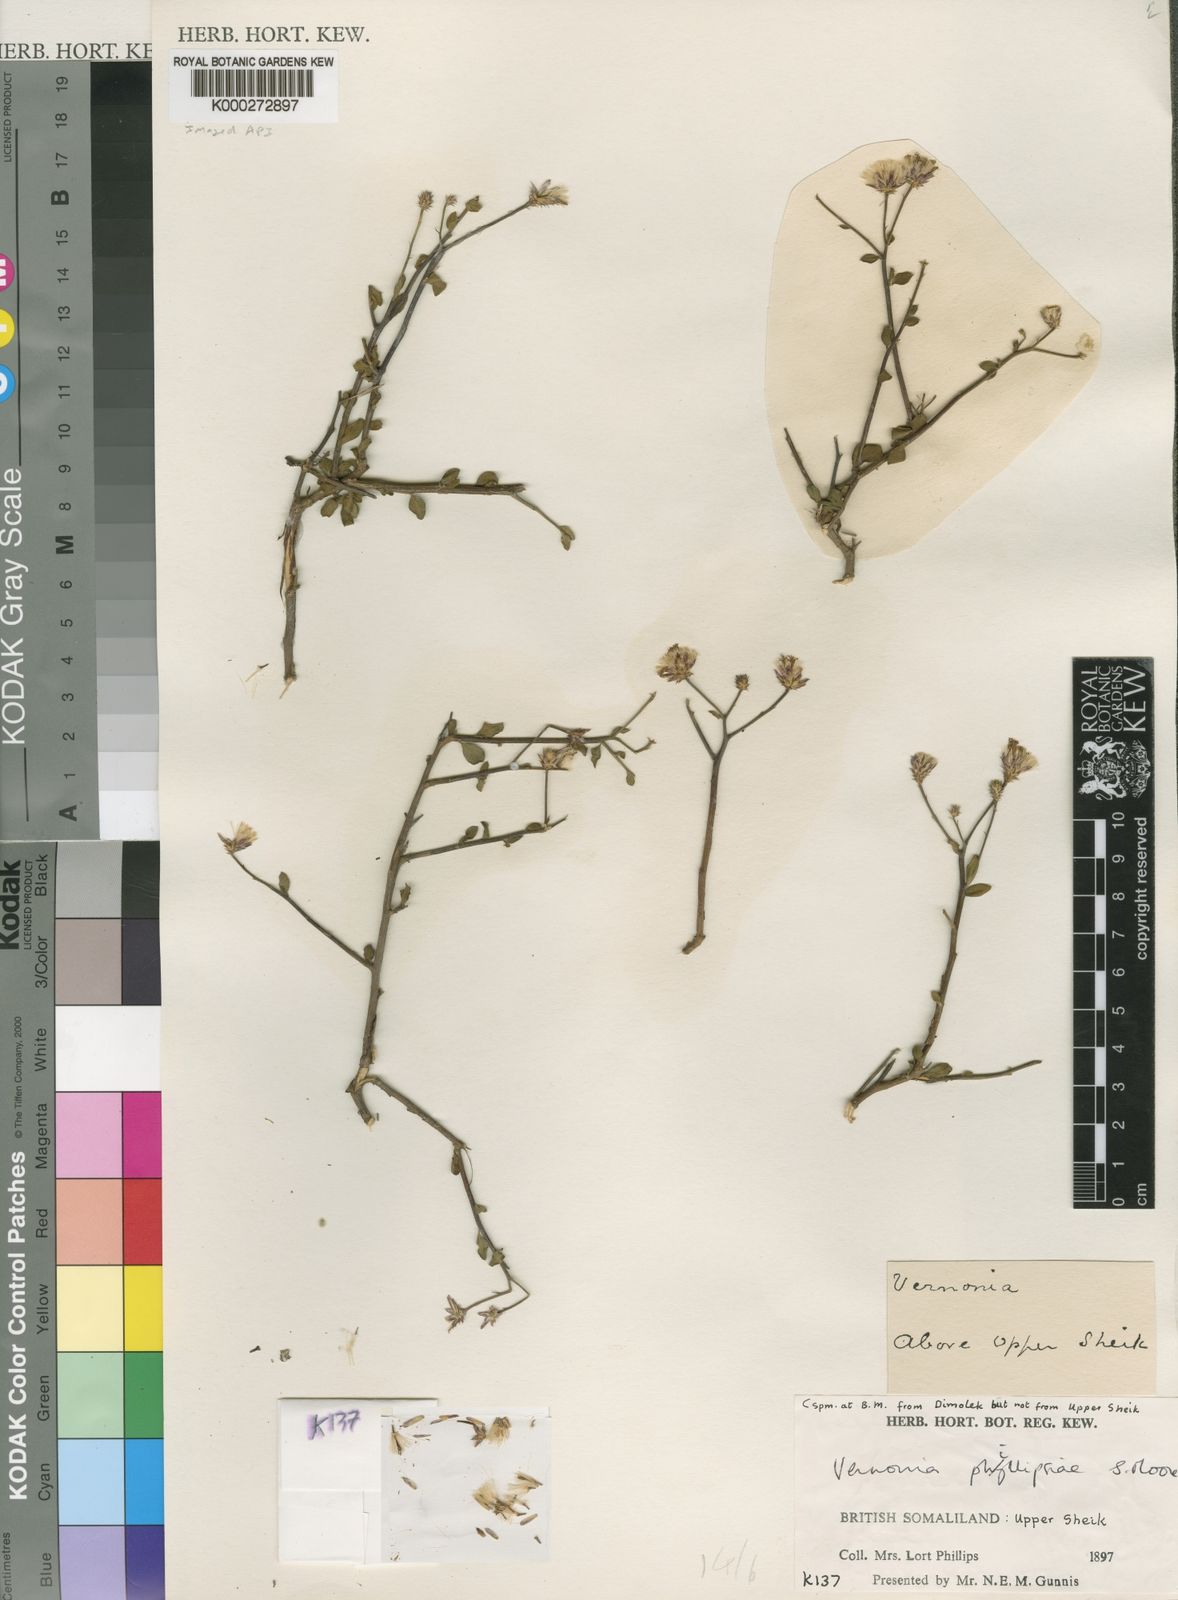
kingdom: Plantae
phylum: Tracheophyta
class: Magnoliopsida
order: Asterales
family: Asteraceae
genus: Vernonia
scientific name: Vernonia phillipsiae
